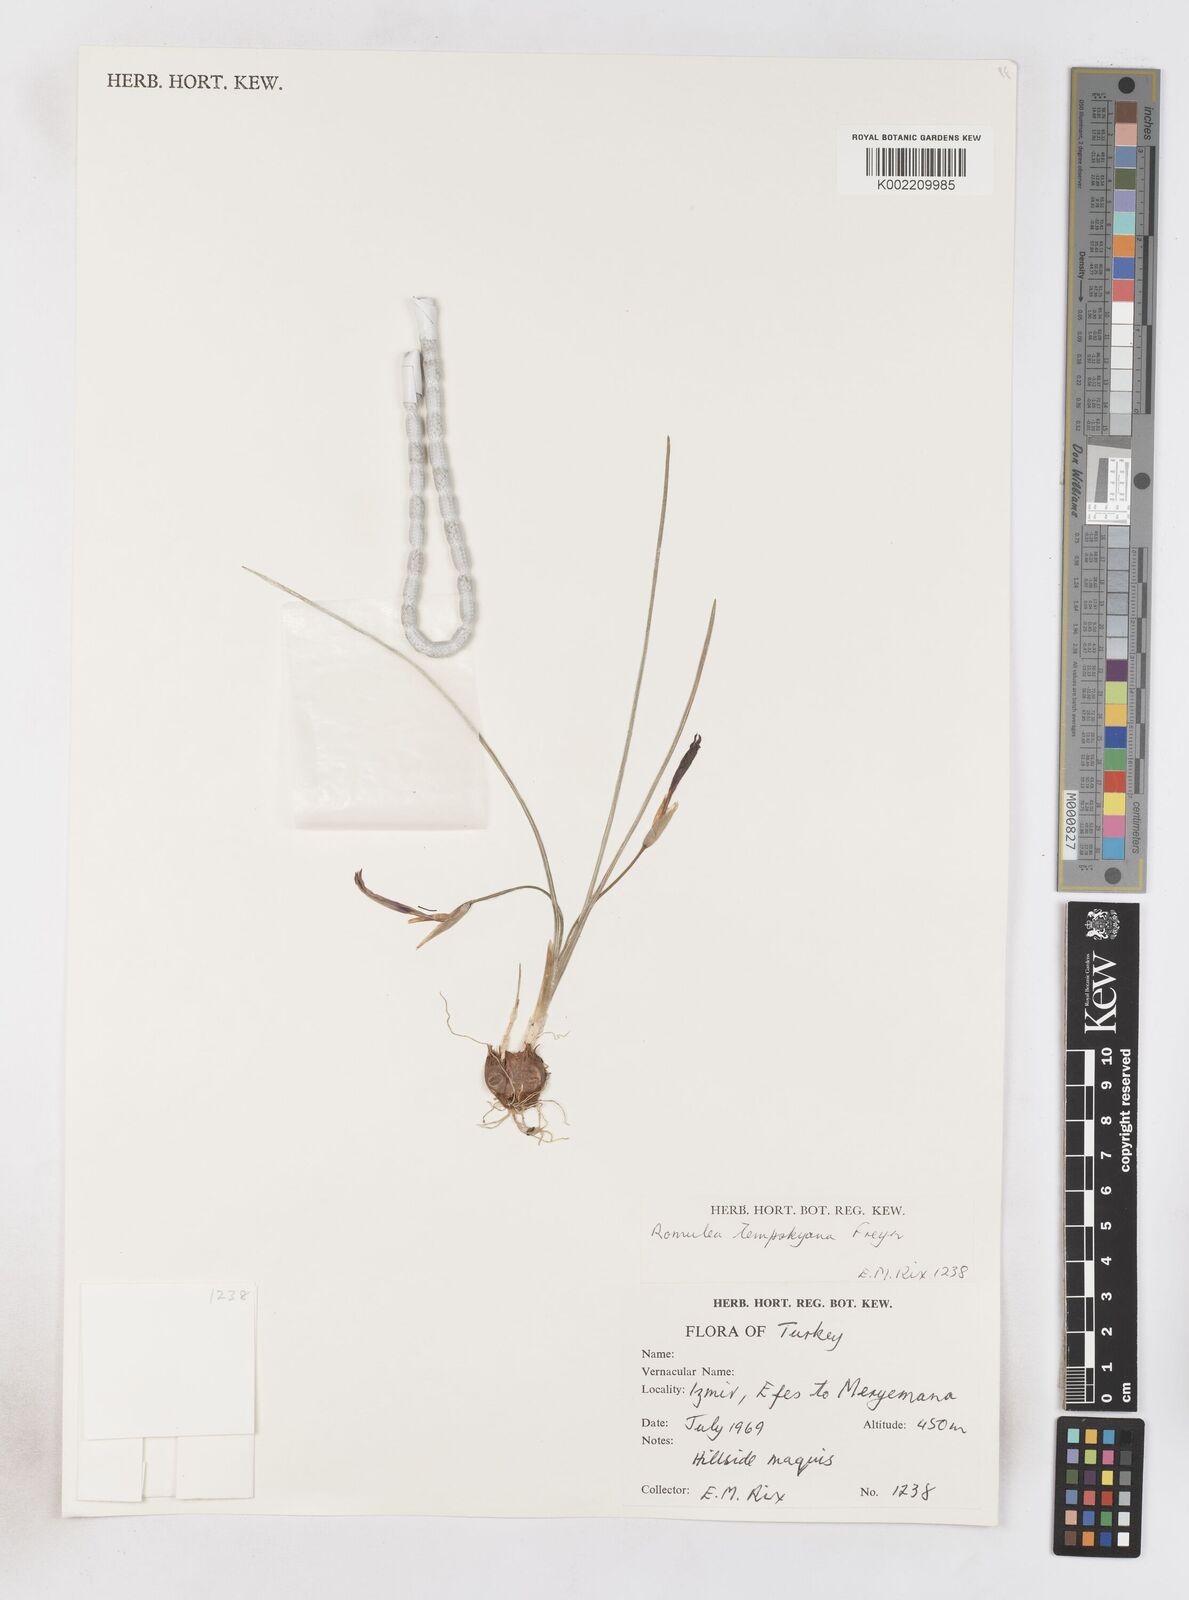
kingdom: Plantae
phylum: Tracheophyta
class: Liliopsida
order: Asparagales
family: Iridaceae
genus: Romulea
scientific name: Romulea tempskyana
